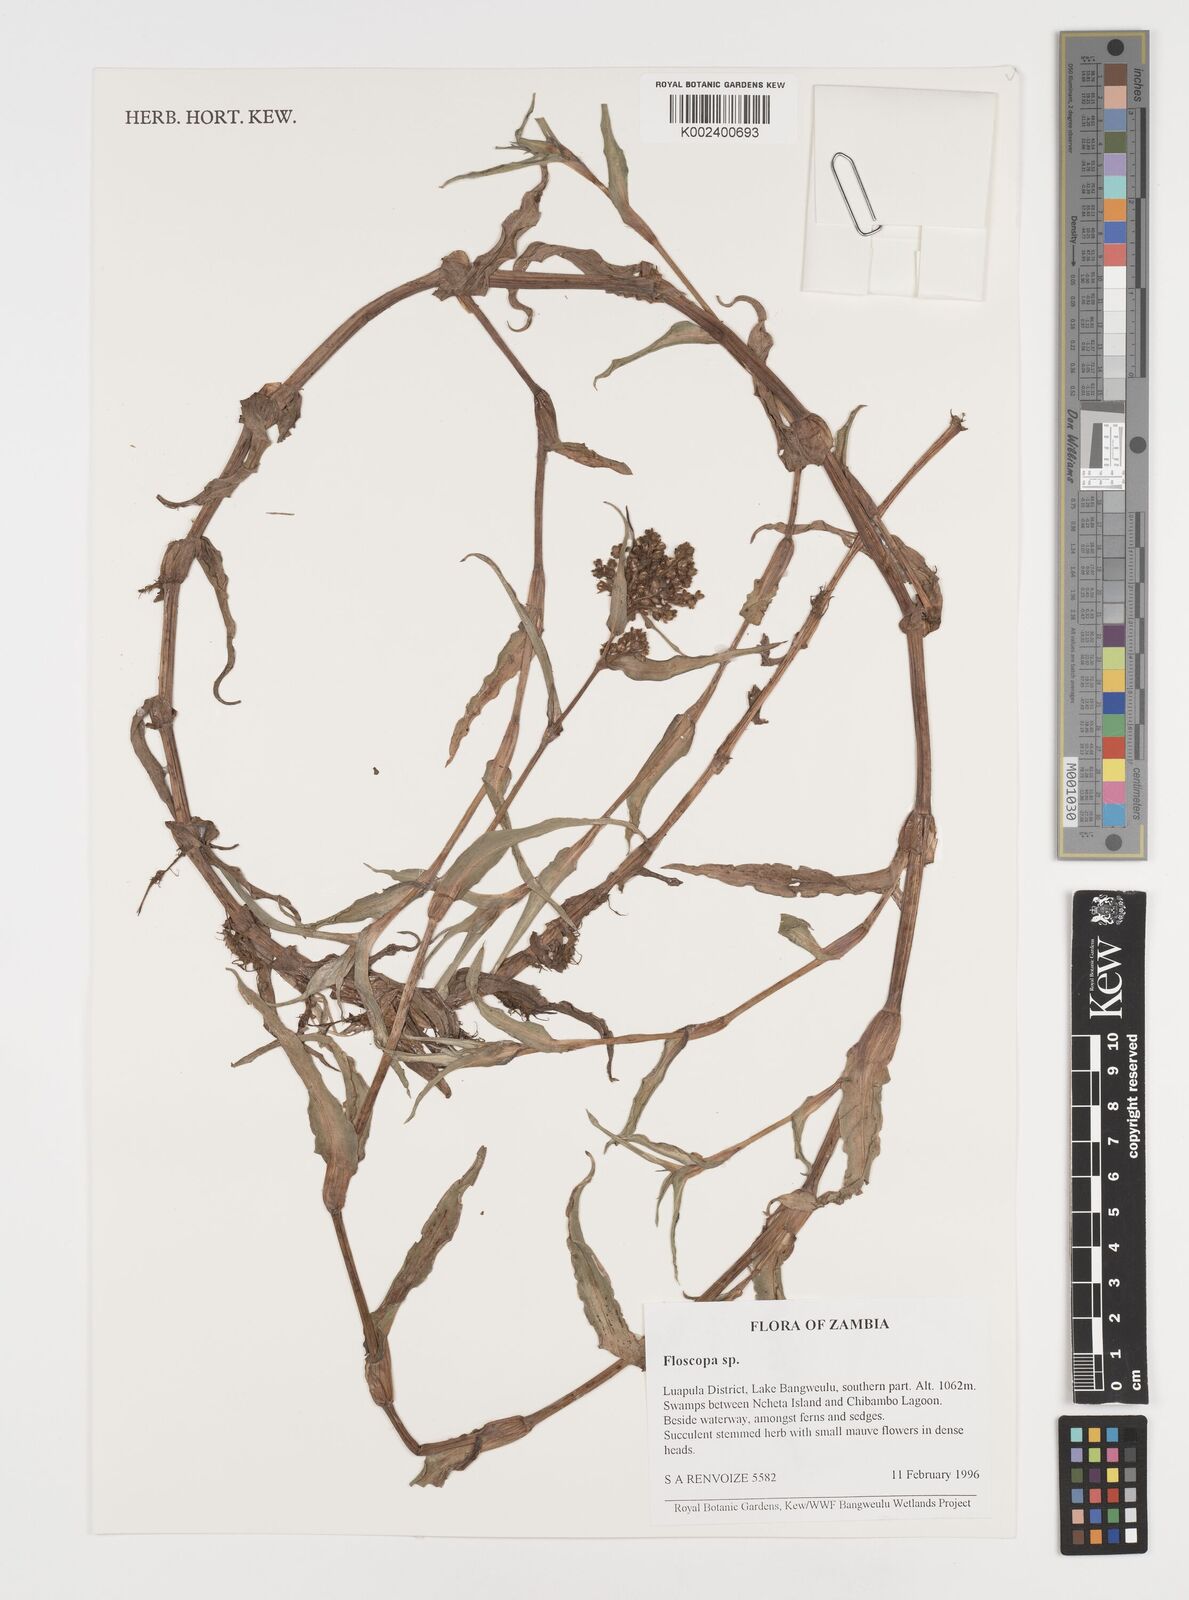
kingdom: Plantae
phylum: Tracheophyta
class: Liliopsida
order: Commelinales
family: Commelinaceae
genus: Floscopa
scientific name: Floscopa
